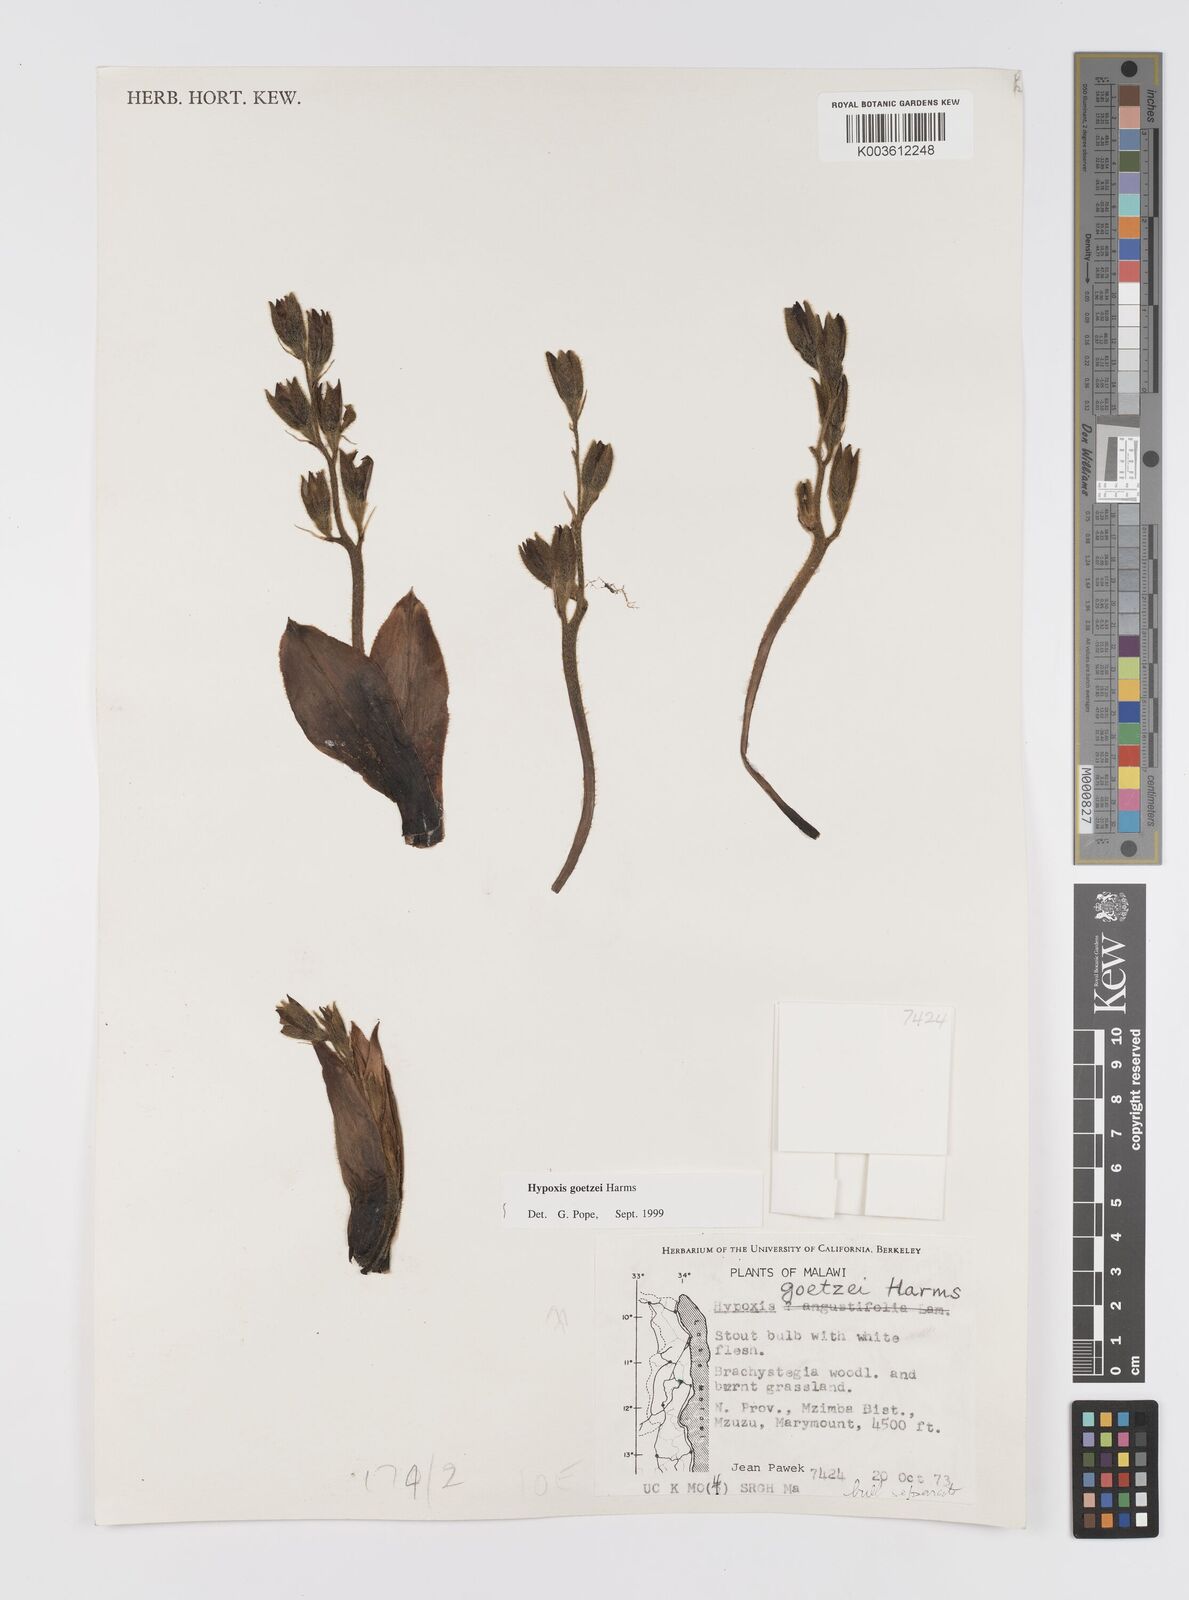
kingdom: Plantae
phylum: Tracheophyta
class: Liliopsida
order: Asparagales
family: Hypoxidaceae
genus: Hypoxis
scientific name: Hypoxis goetzei
